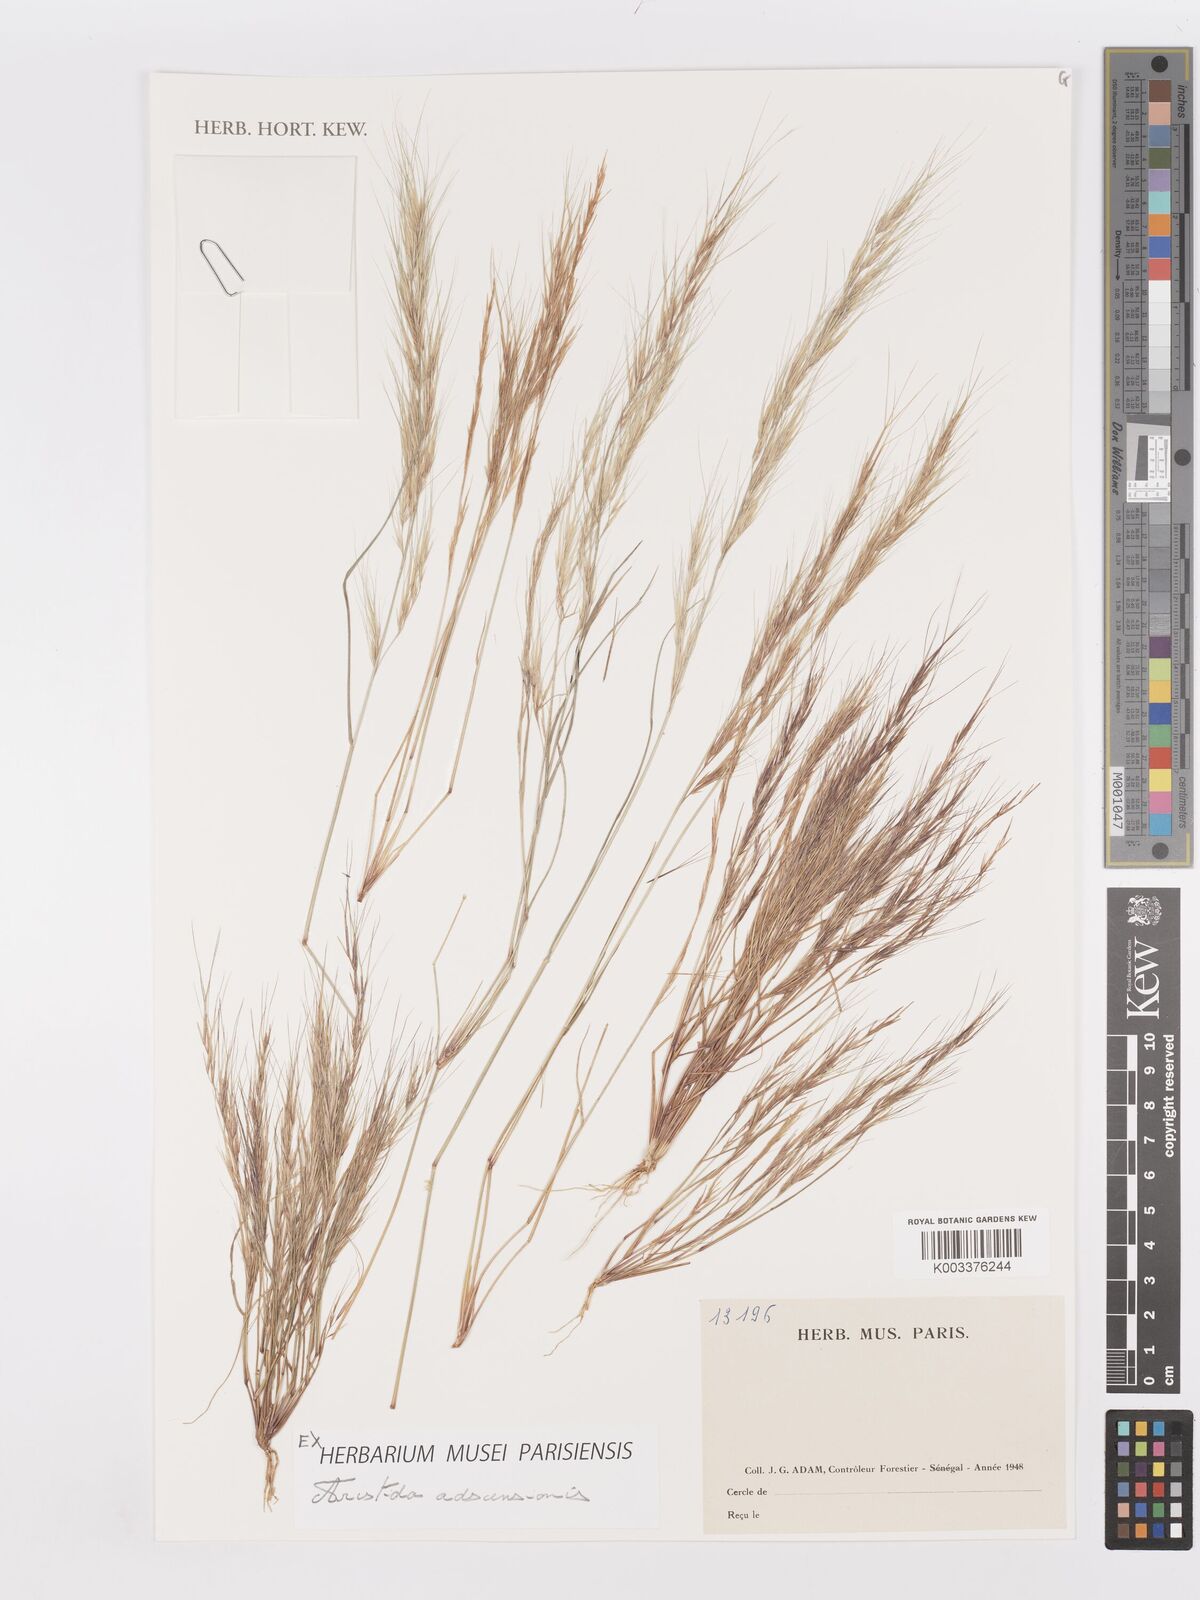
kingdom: Plantae
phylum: Tracheophyta
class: Liliopsida
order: Poales
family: Poaceae
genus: Aristida
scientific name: Aristida adscensionis
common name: Sixweeks threeawn
